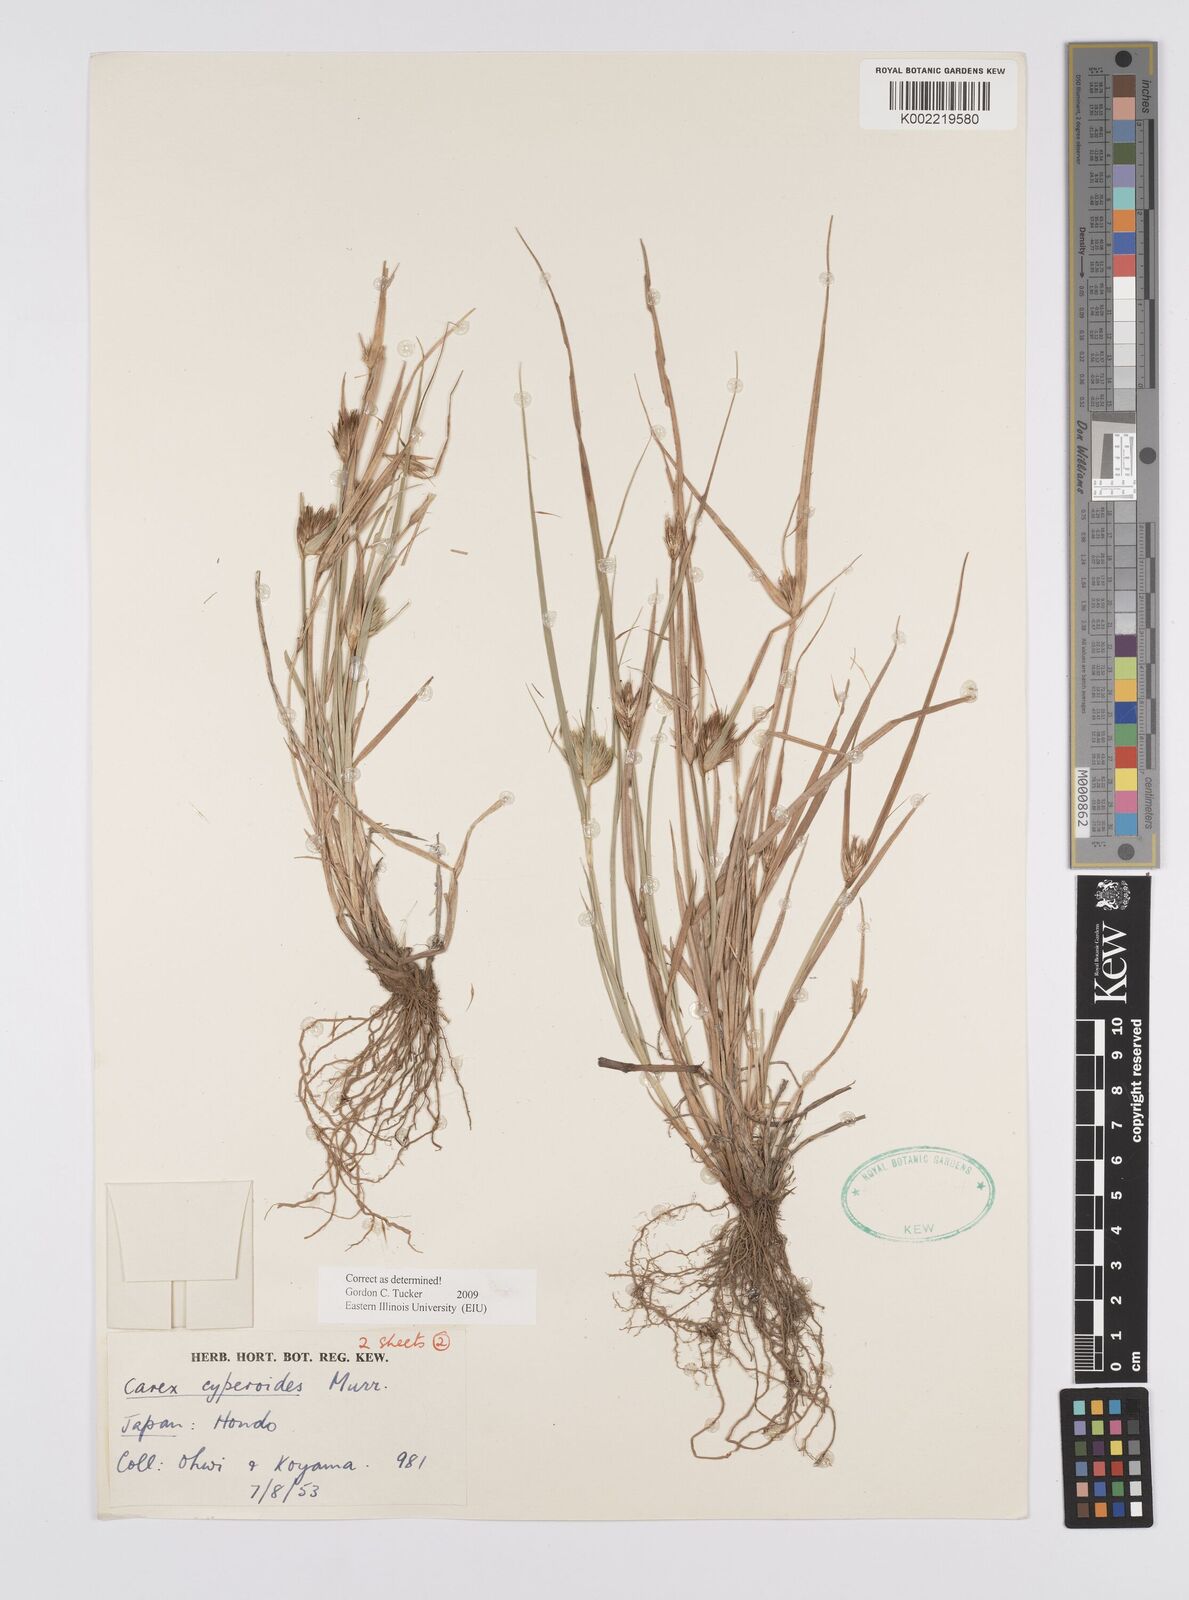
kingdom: Plantae
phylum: Tracheophyta
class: Liliopsida
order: Poales
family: Cyperaceae
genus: Carex
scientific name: Carex bohemica
